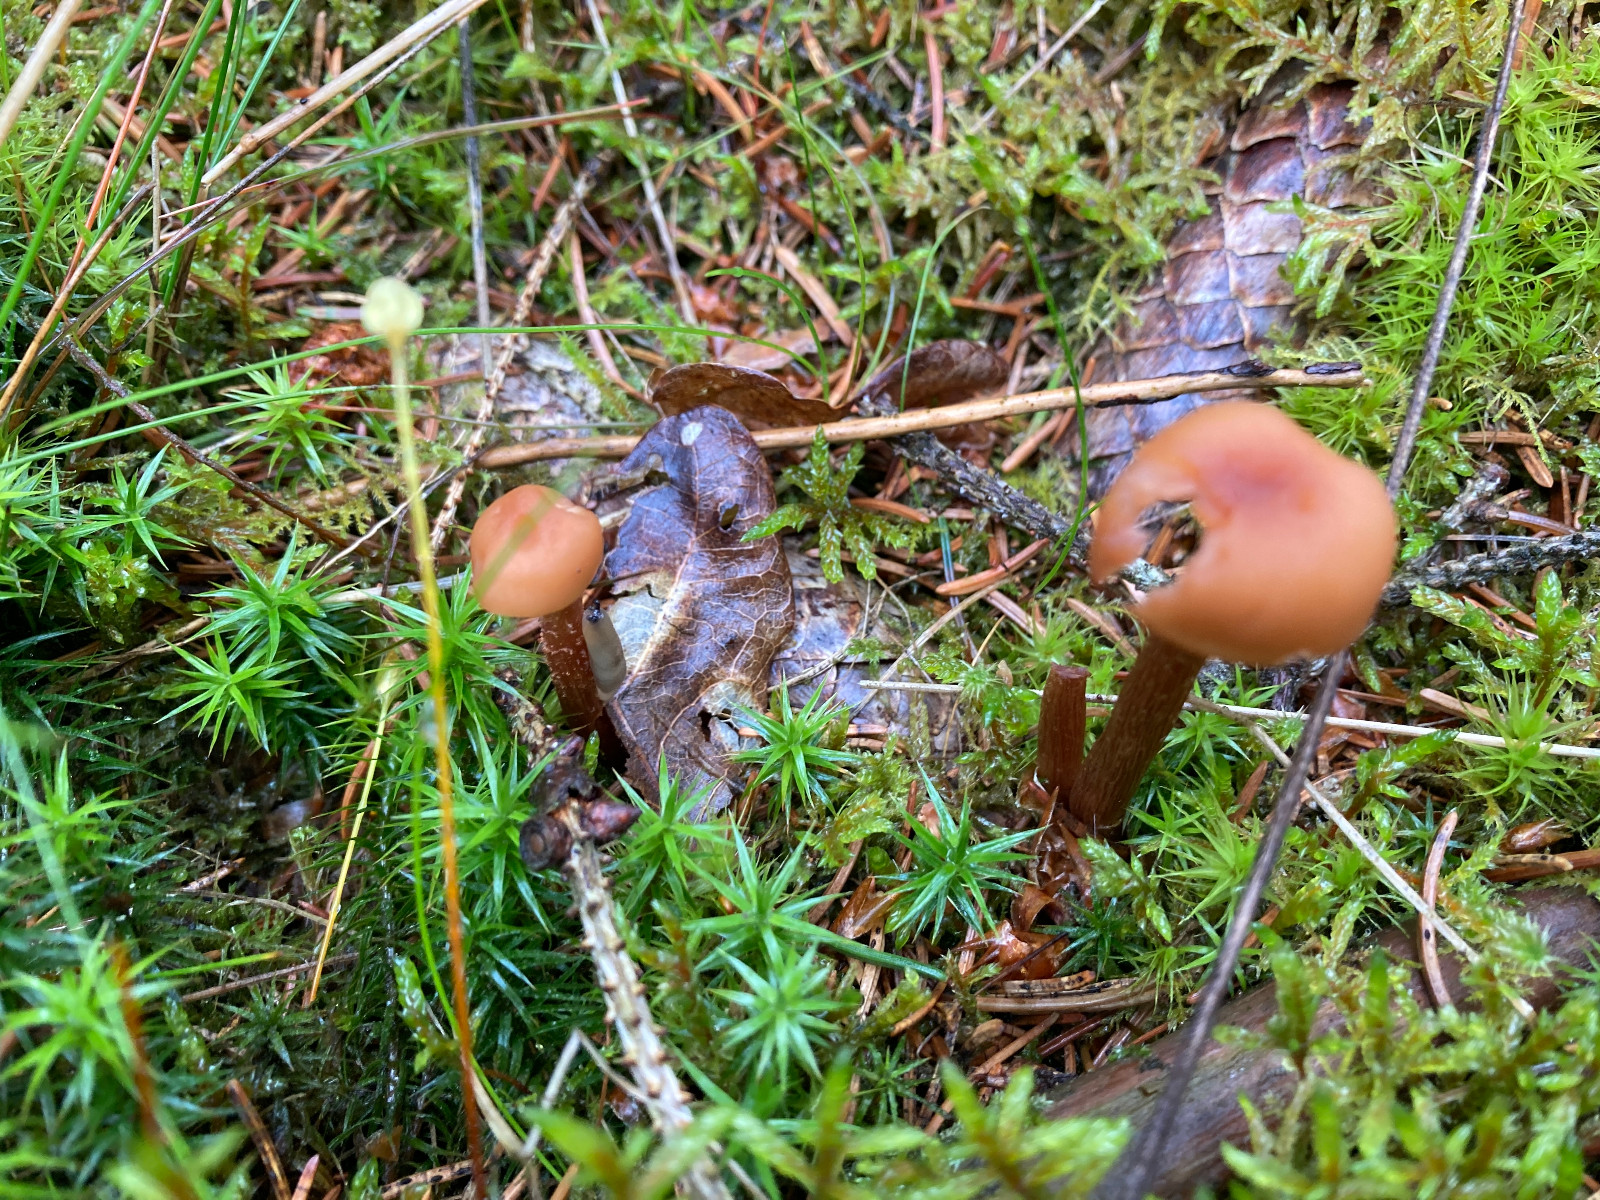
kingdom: Fungi
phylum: Basidiomycota
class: Agaricomycetes
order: Agaricales
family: Hydnangiaceae
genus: Laccaria
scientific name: Laccaria laccata
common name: rød ametysthat
